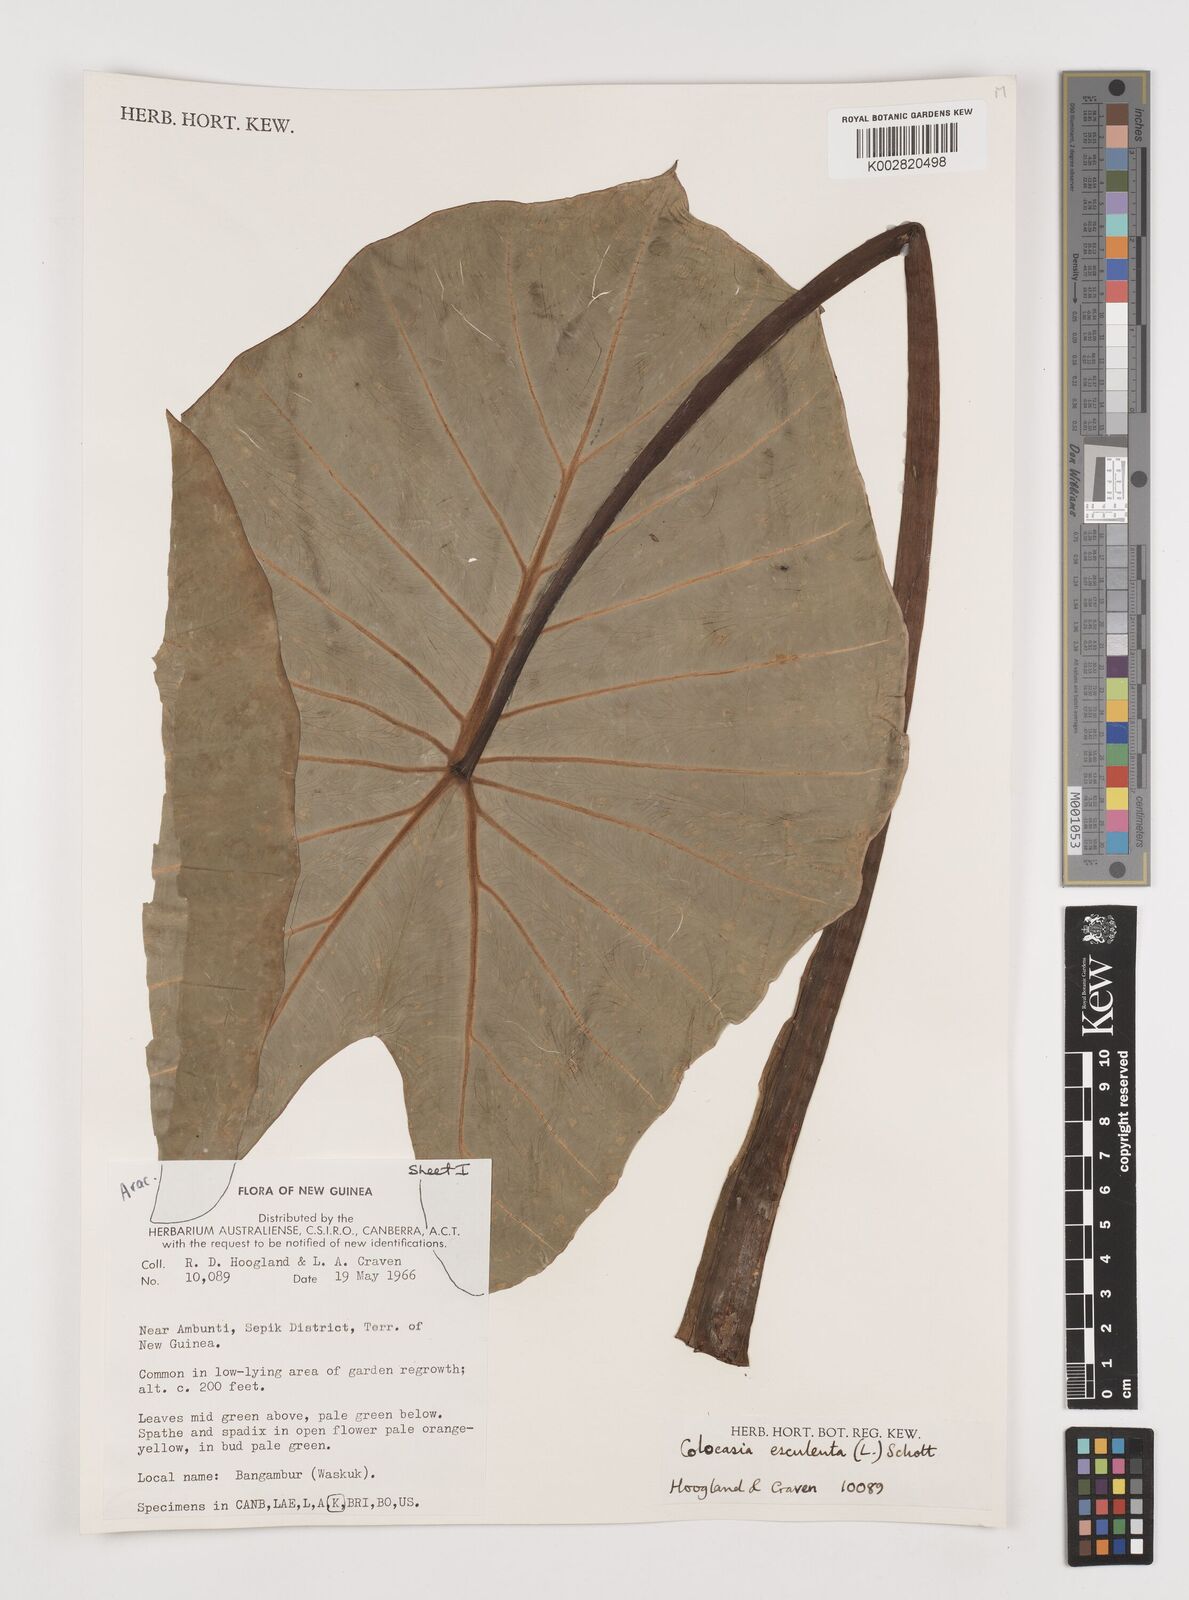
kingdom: Plantae
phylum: Tracheophyta
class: Liliopsida
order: Alismatales
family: Araceae
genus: Colocasia
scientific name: Colocasia esculenta
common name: Taro
